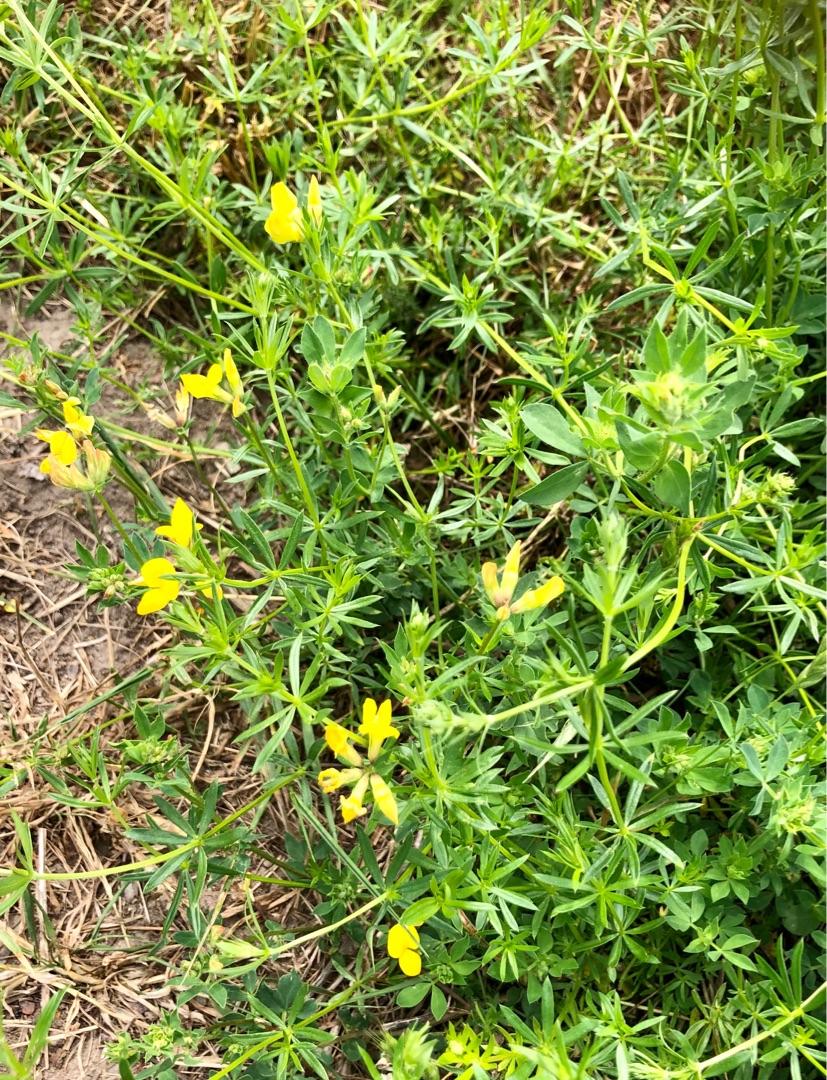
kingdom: Plantae
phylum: Tracheophyta
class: Magnoliopsida
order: Fabales
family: Fabaceae
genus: Lotus
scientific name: Lotus corniculatus
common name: Almindelig kællingetand
